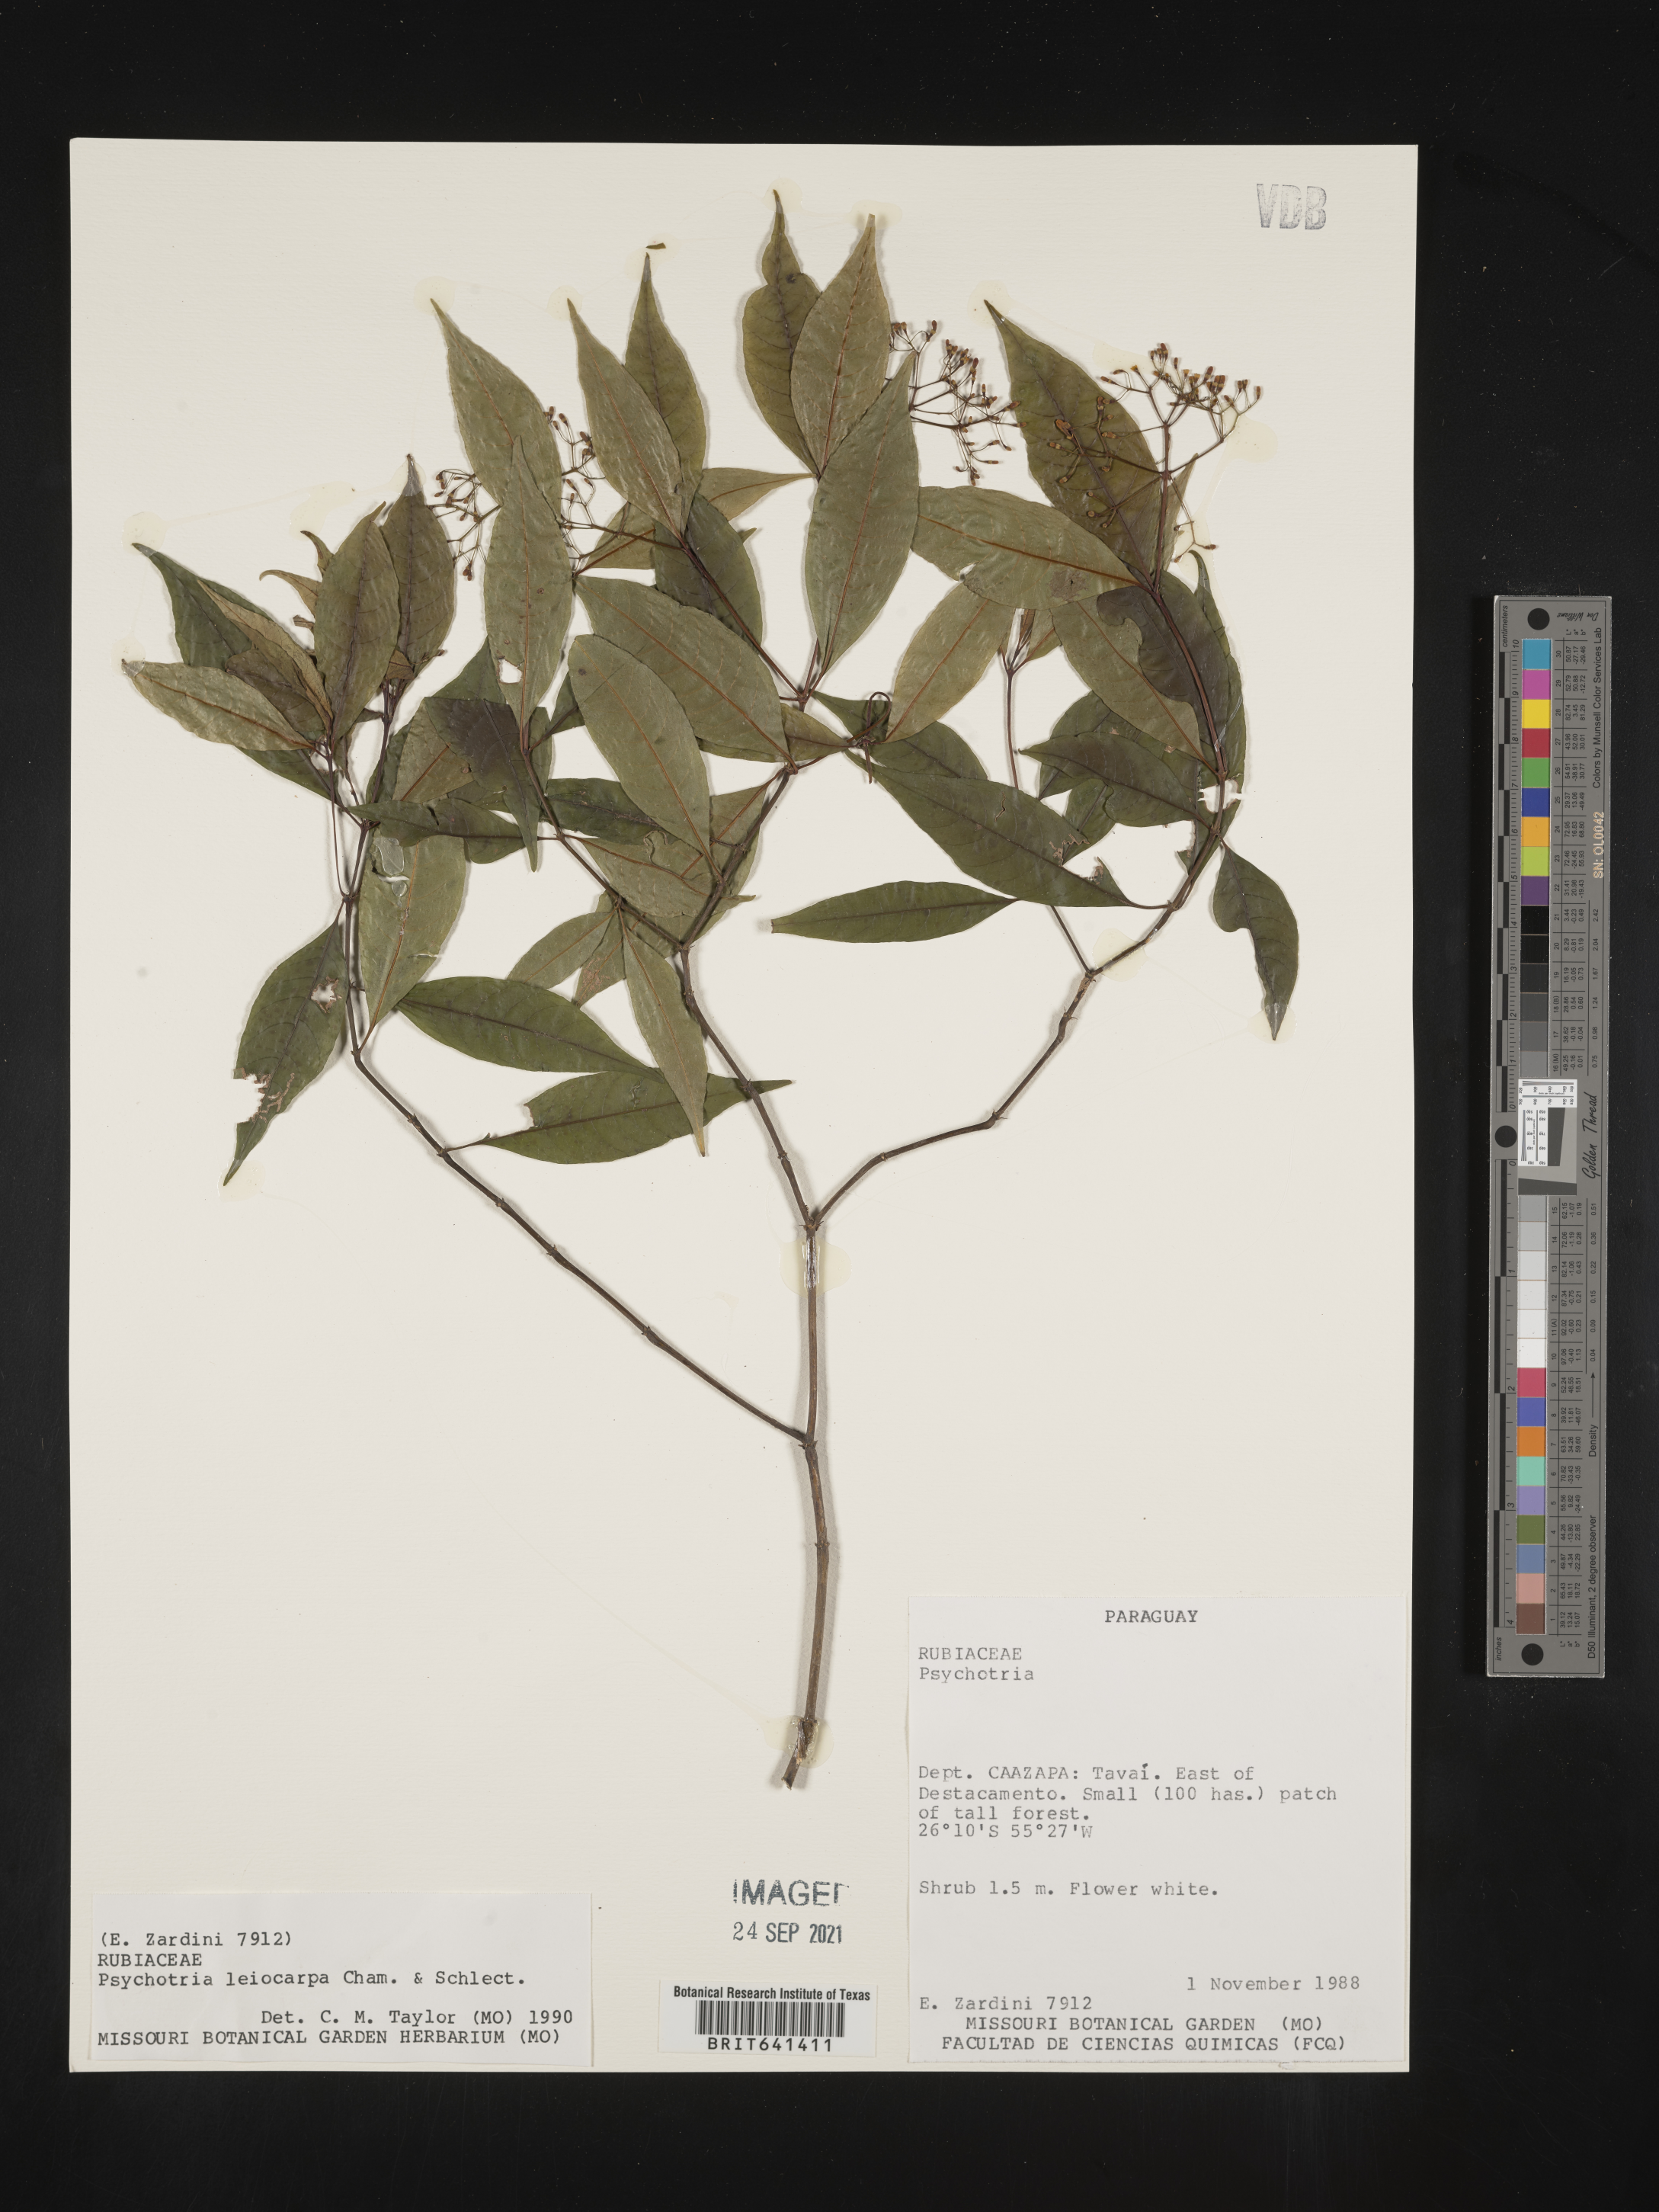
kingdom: Plantae
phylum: Tracheophyta
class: Magnoliopsida
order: Gentianales
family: Rubiaceae
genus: Psychotria
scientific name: Psychotria
